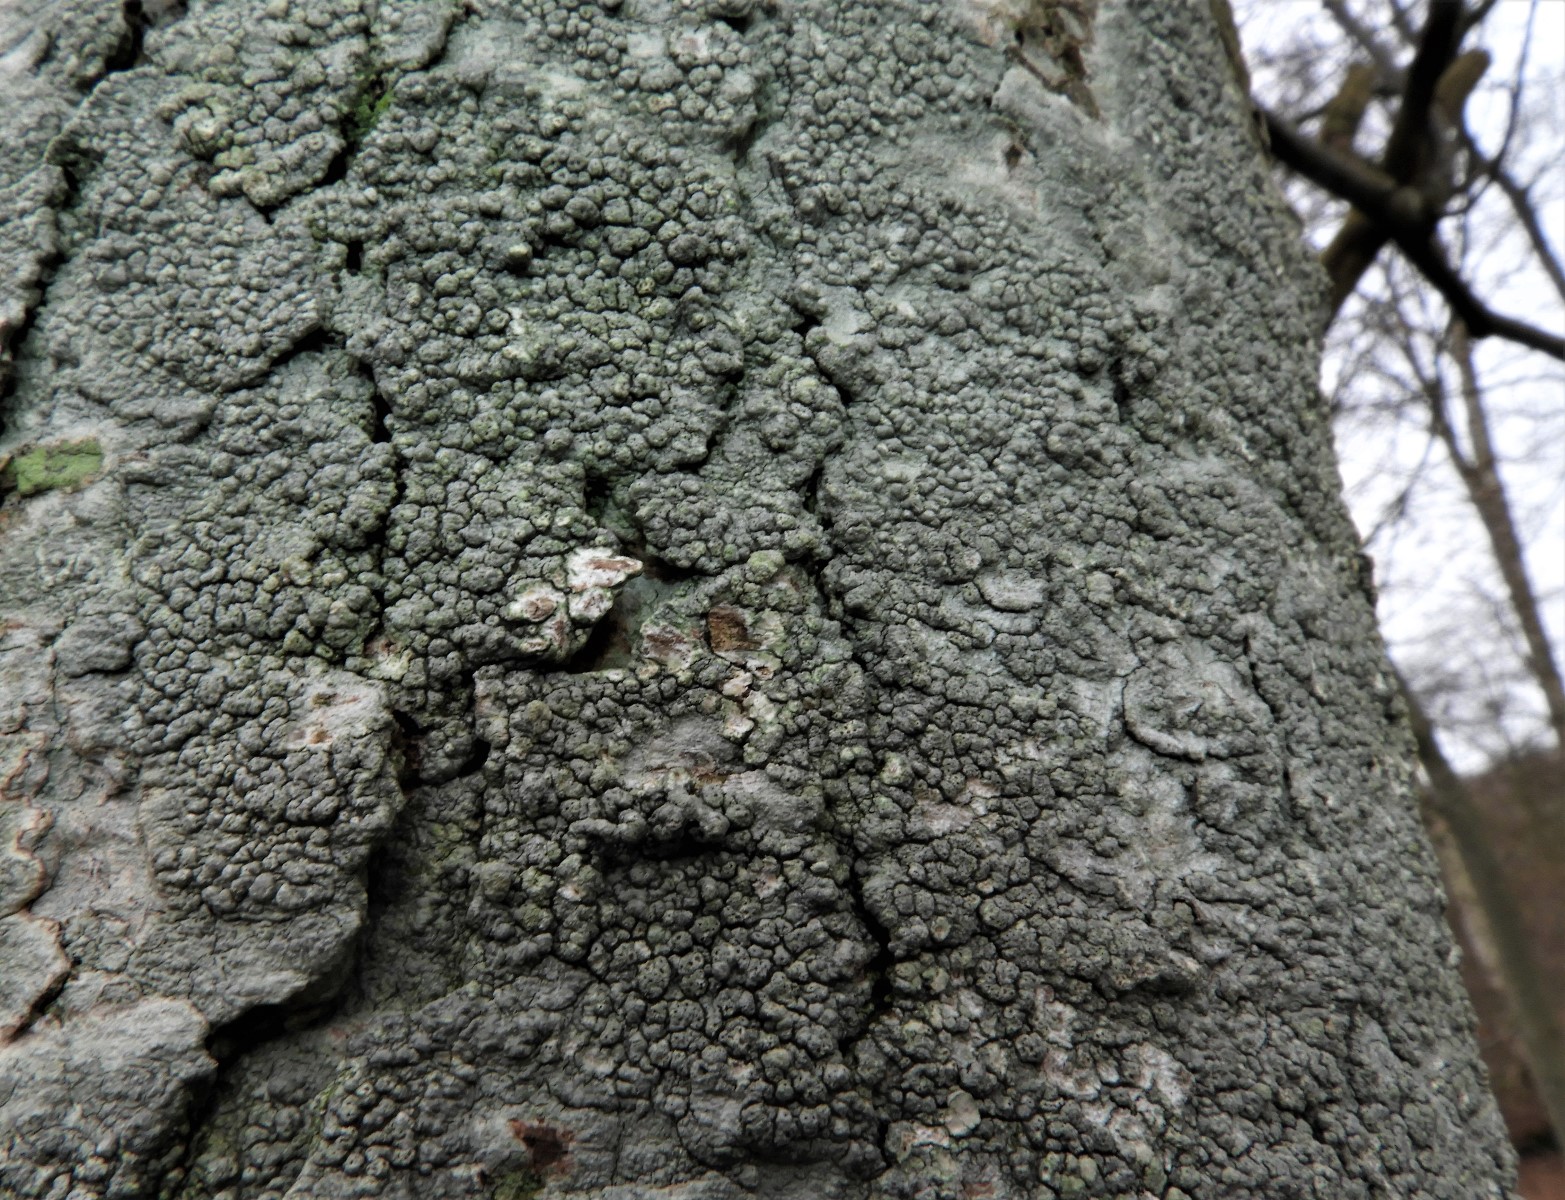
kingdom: Fungi
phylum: Ascomycota
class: Lecanoromycetes
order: Pertusariales
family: Pertusariaceae
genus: Pertusaria
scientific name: Pertusaria pertusa
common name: almindelig prikvortelav
